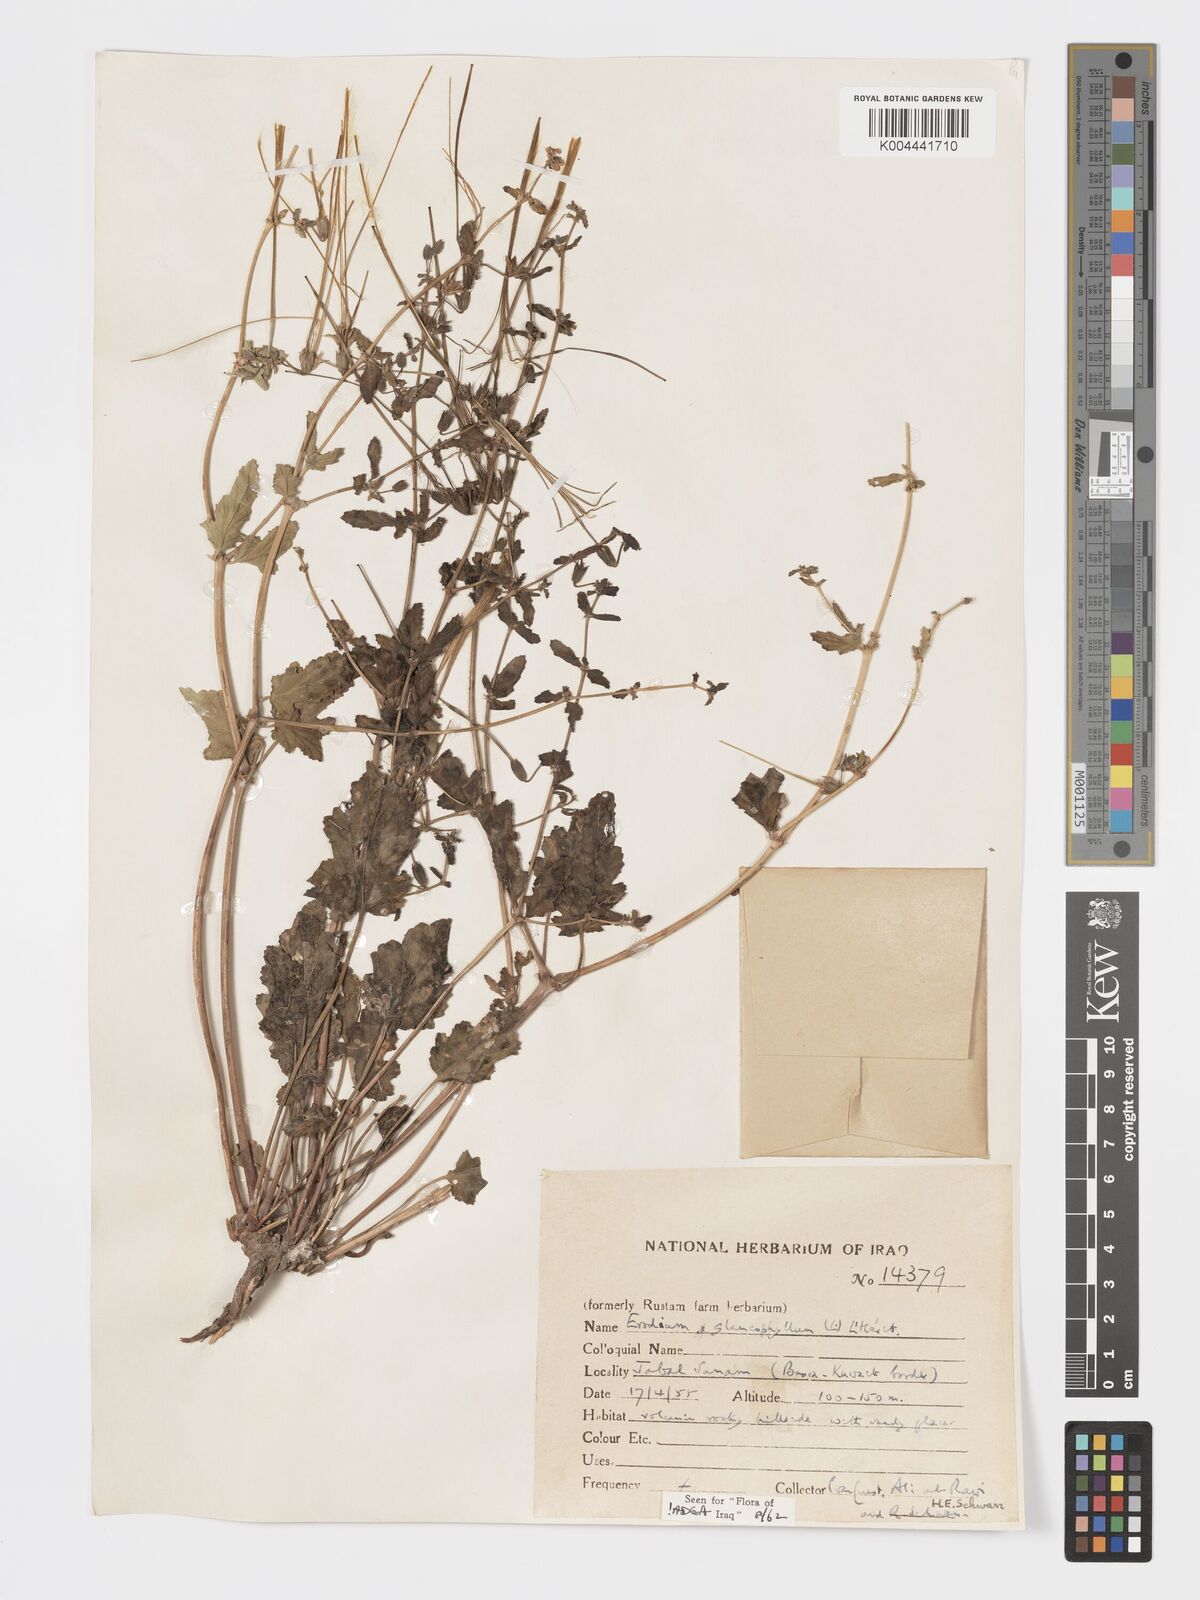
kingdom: Plantae
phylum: Tracheophyta
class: Magnoliopsida
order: Geraniales
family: Geraniaceae
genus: Erodium
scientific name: Erodium glaucophyllum
